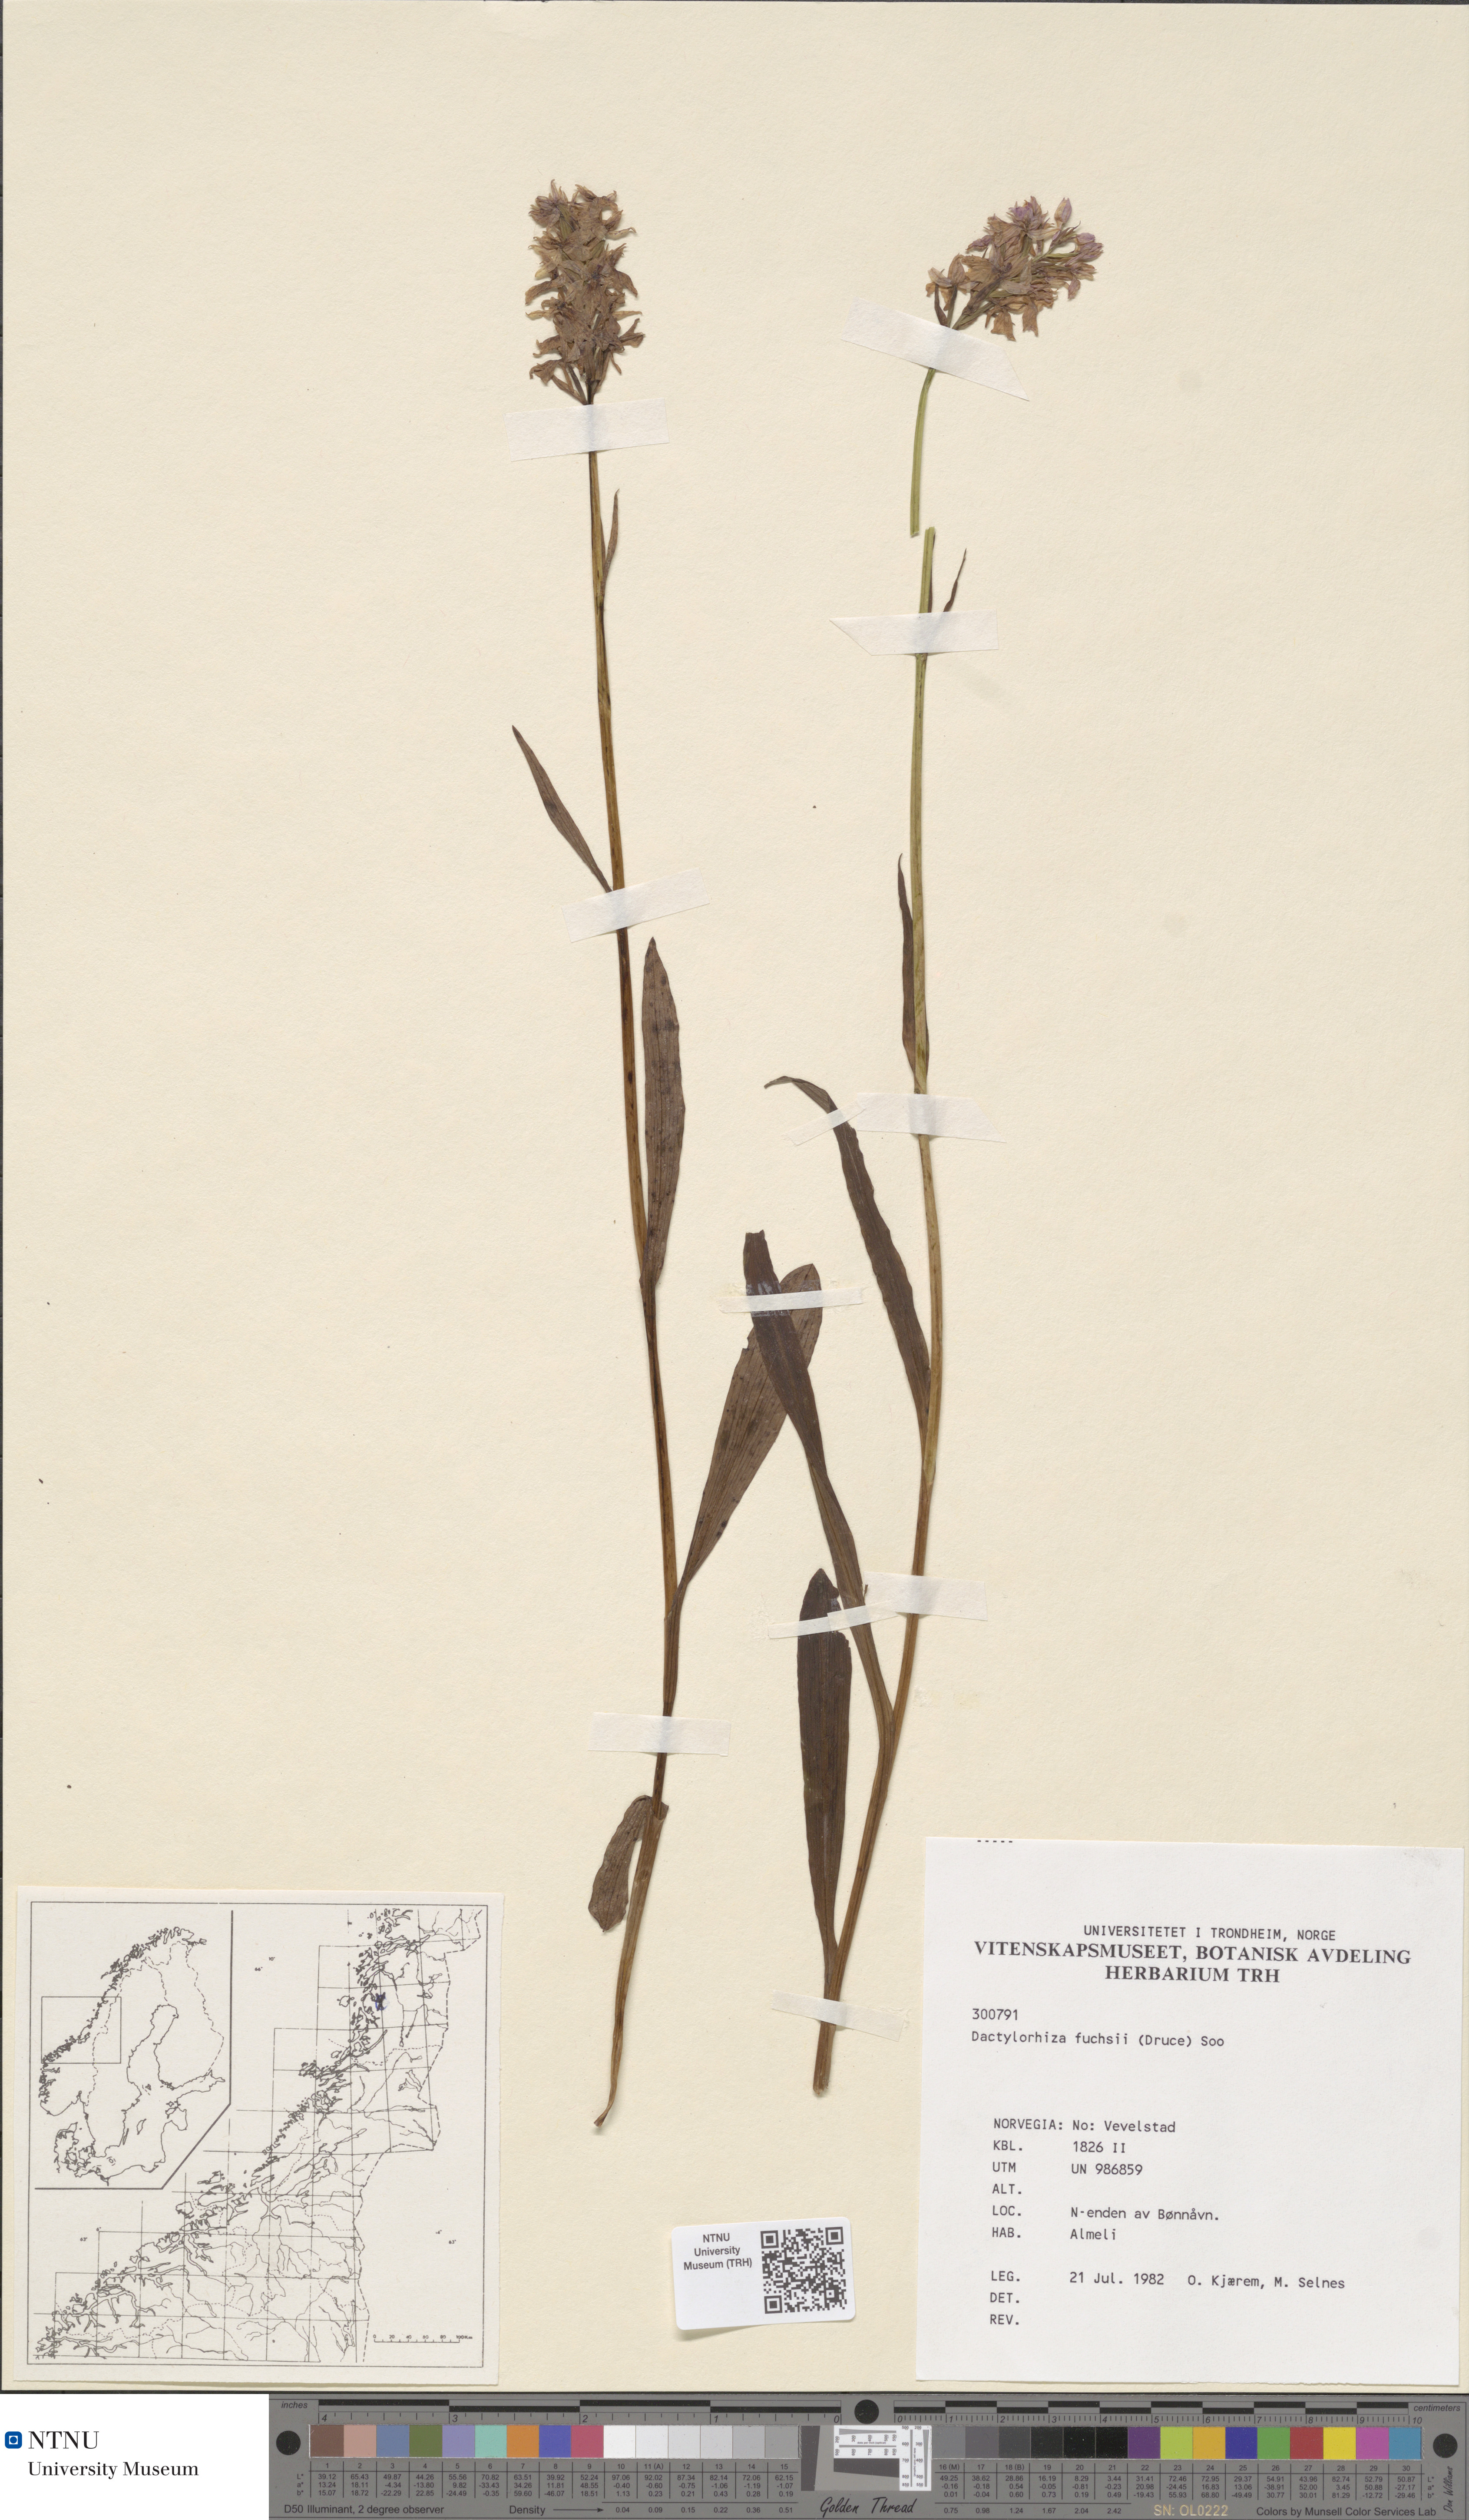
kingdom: Plantae
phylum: Tracheophyta
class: Liliopsida
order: Asparagales
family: Orchidaceae
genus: Dactylorhiza
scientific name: Dactylorhiza maculata
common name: Heath spotted-orchid
